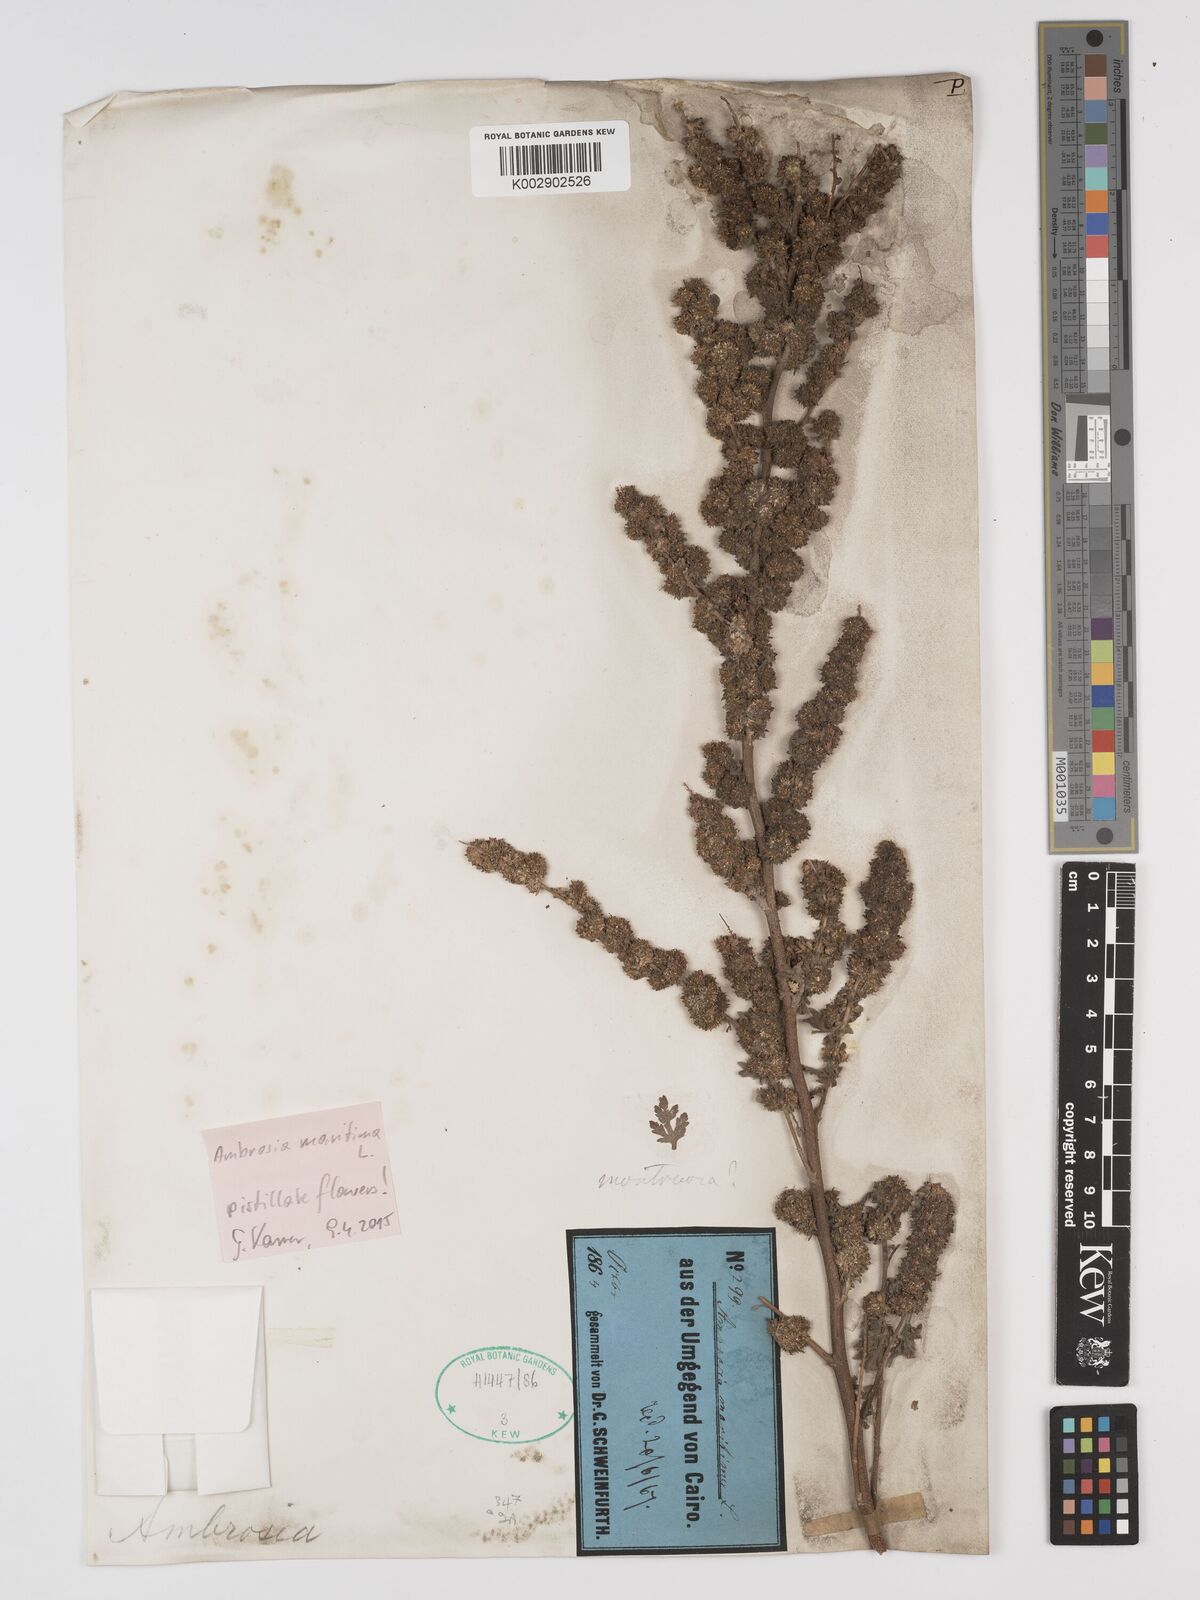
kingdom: Plantae
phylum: Tracheophyta
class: Magnoliopsida
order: Asterales
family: Asteraceae
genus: Ambrosia
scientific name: Ambrosia maritima
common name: Sea ambrosia
